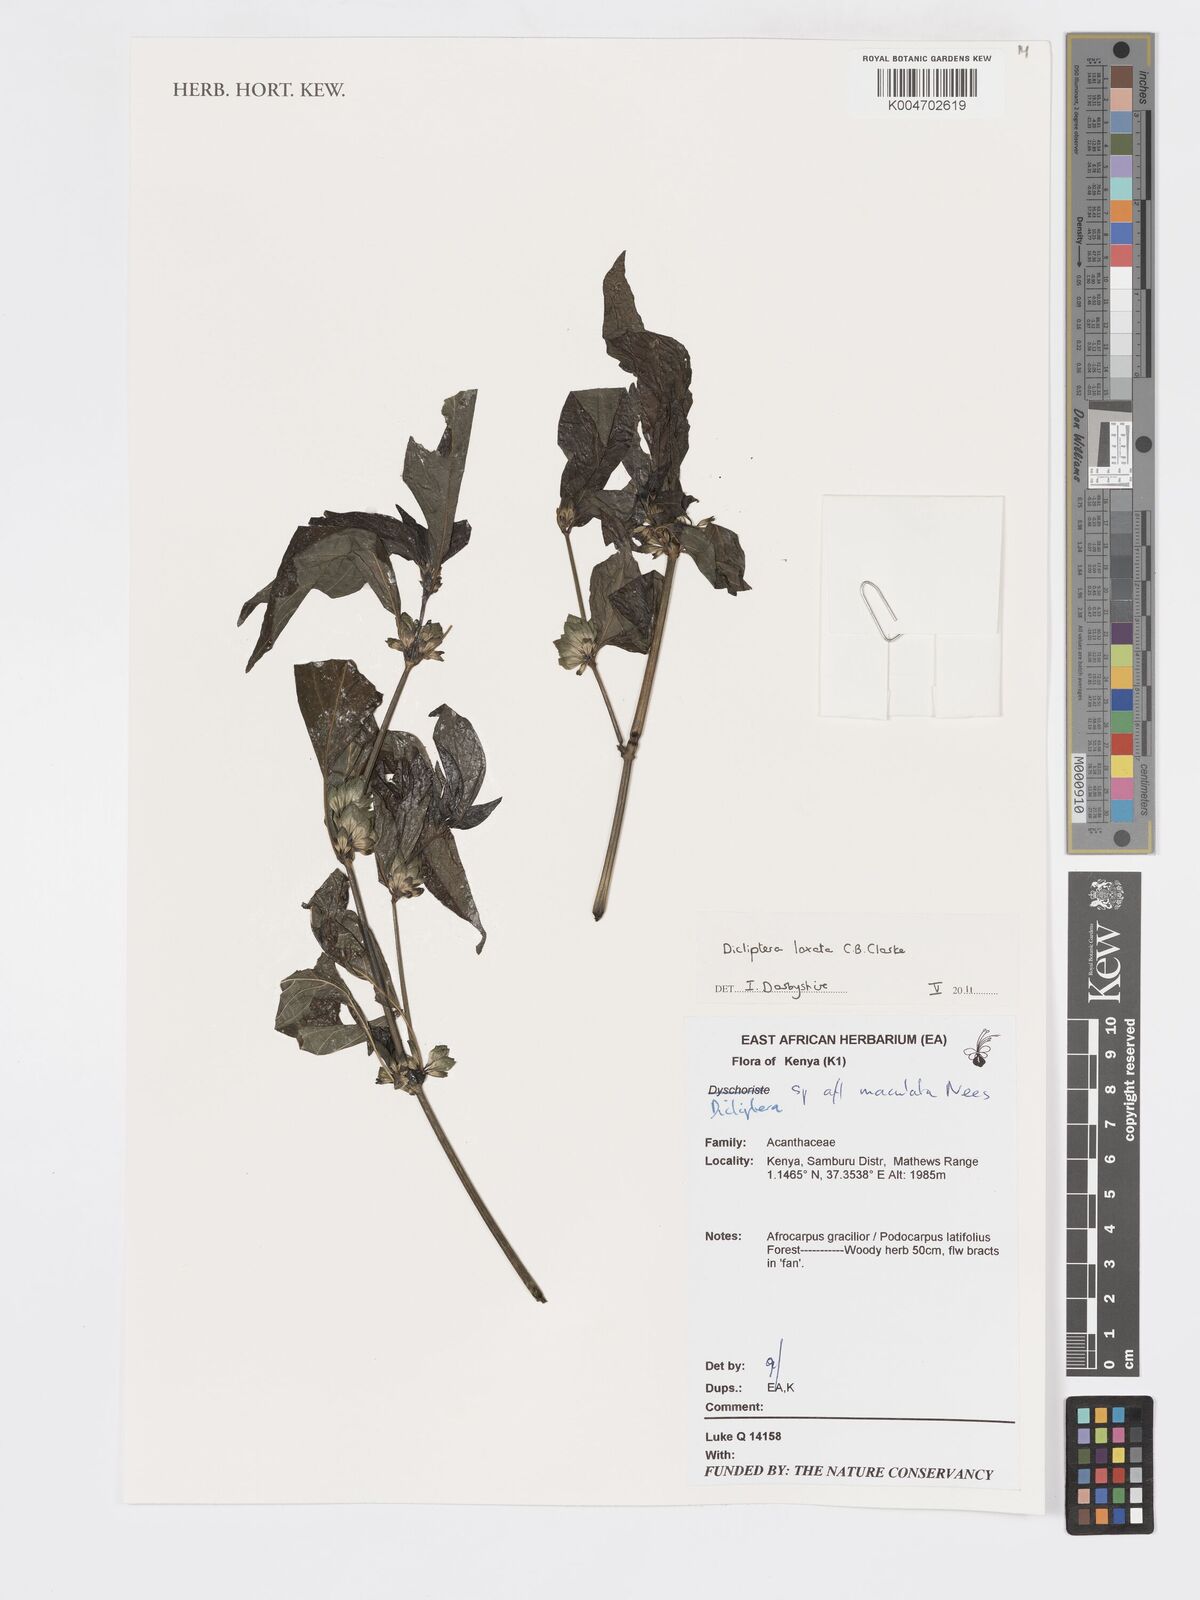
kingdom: Plantae
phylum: Tracheophyta
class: Magnoliopsida
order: Lamiales
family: Acanthaceae
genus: Dicliptera
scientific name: Dicliptera laxata
